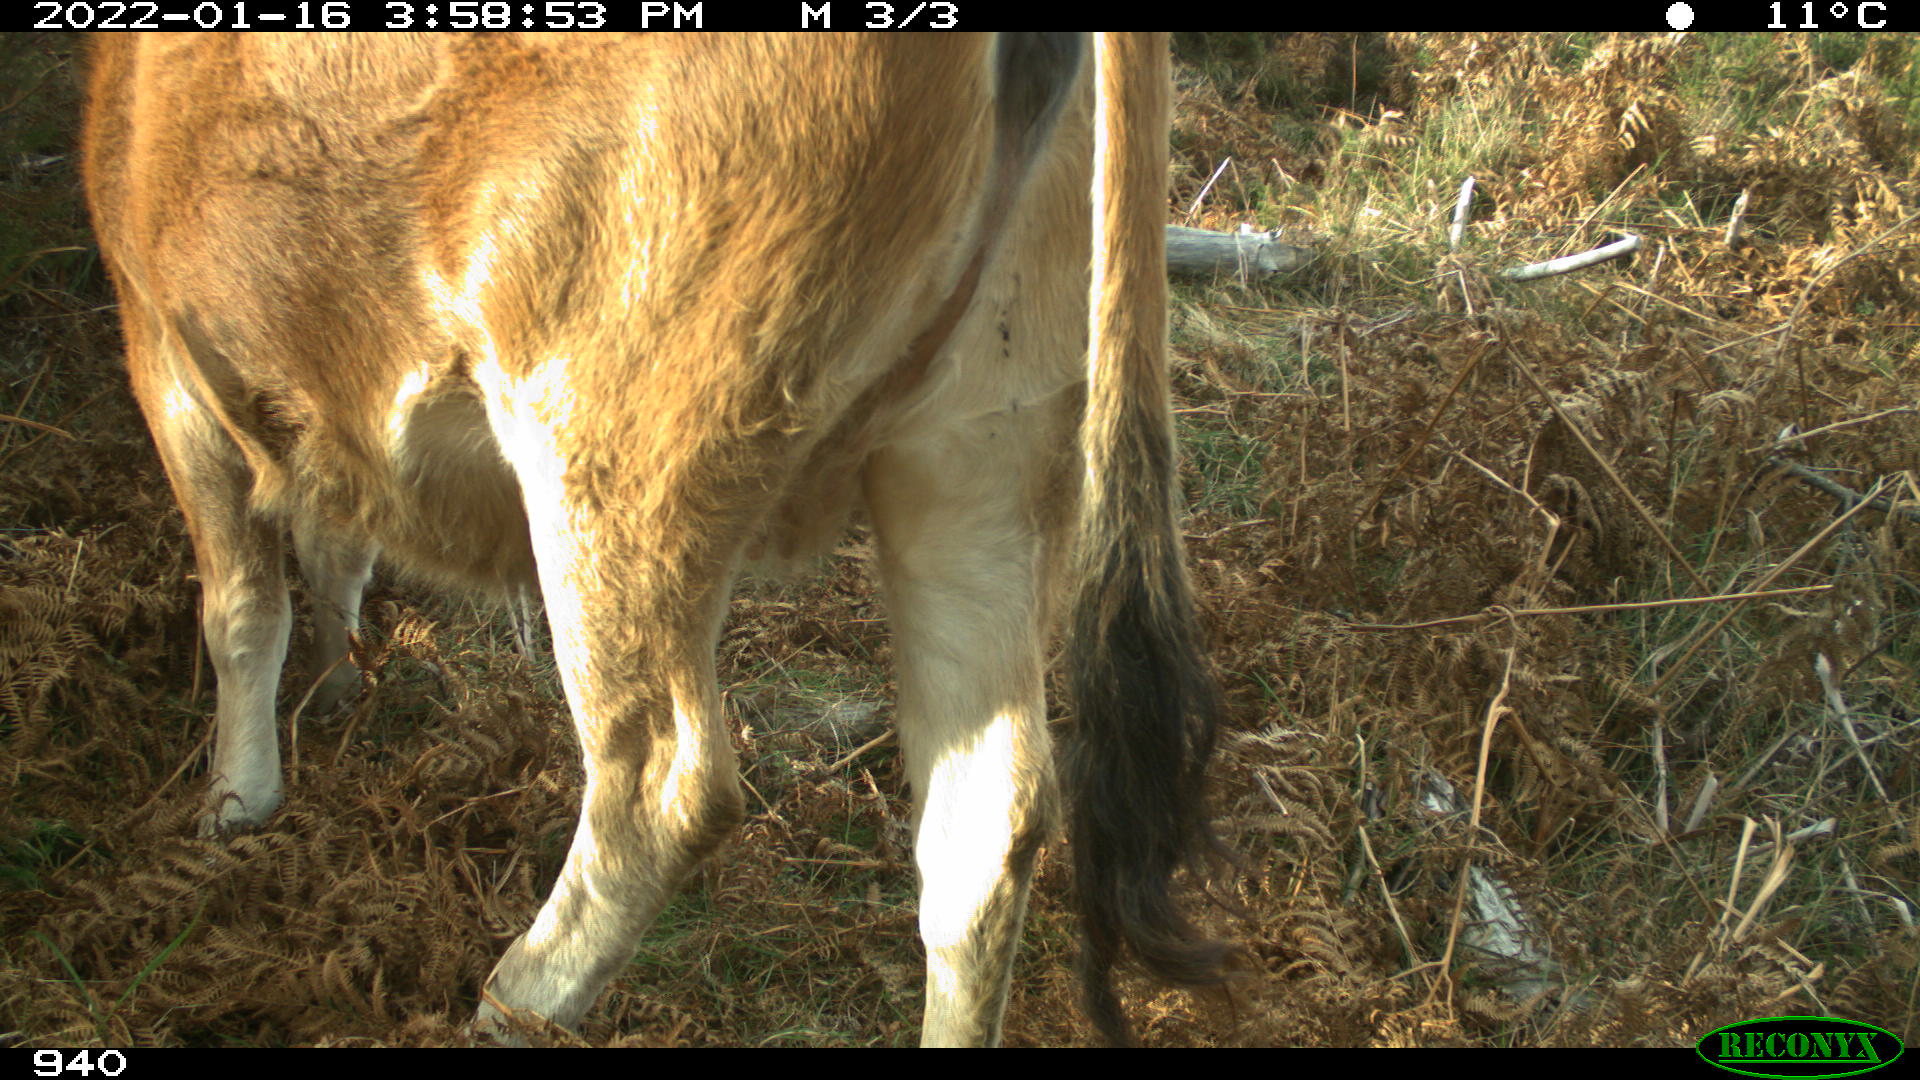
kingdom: Animalia
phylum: Chordata
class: Mammalia
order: Artiodactyla
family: Bovidae
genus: Bos
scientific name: Bos taurus
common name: Domesticated cattle
